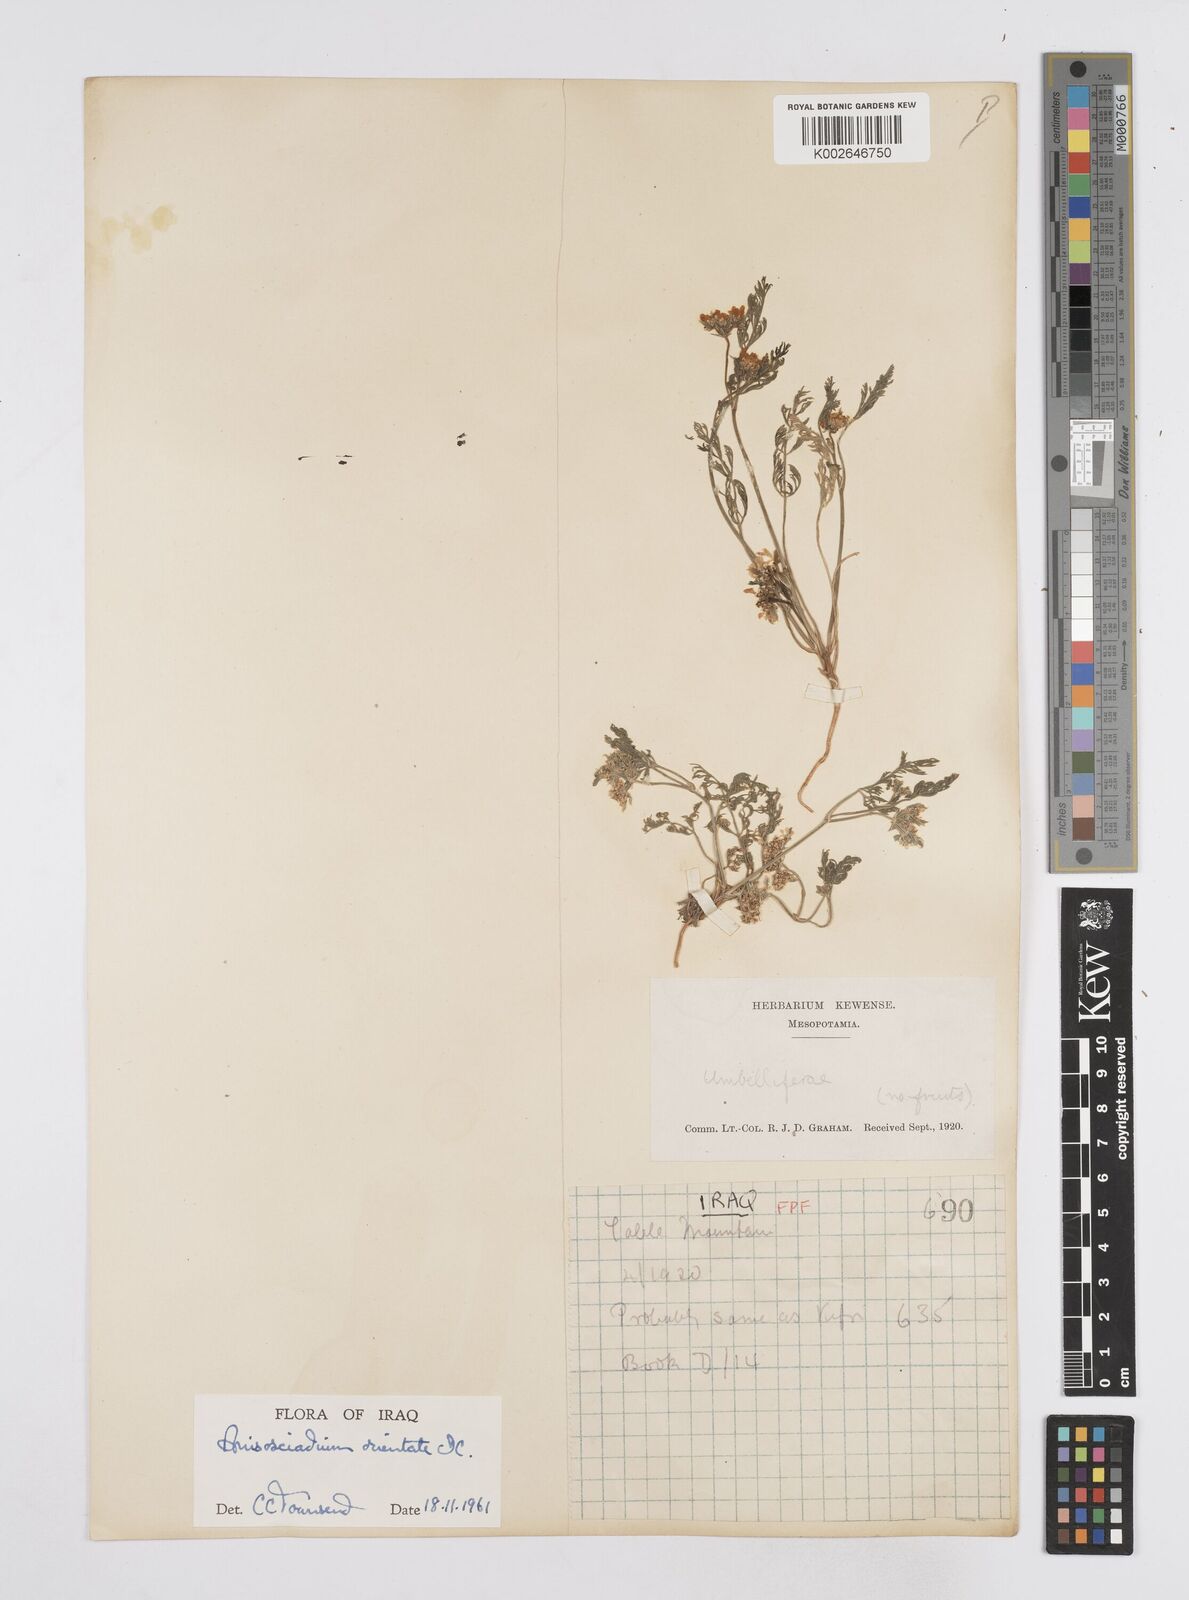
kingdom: Plantae
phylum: Tracheophyta
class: Magnoliopsida
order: Apiales
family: Apiaceae
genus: Anisosciadium
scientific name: Anisosciadium orientale
